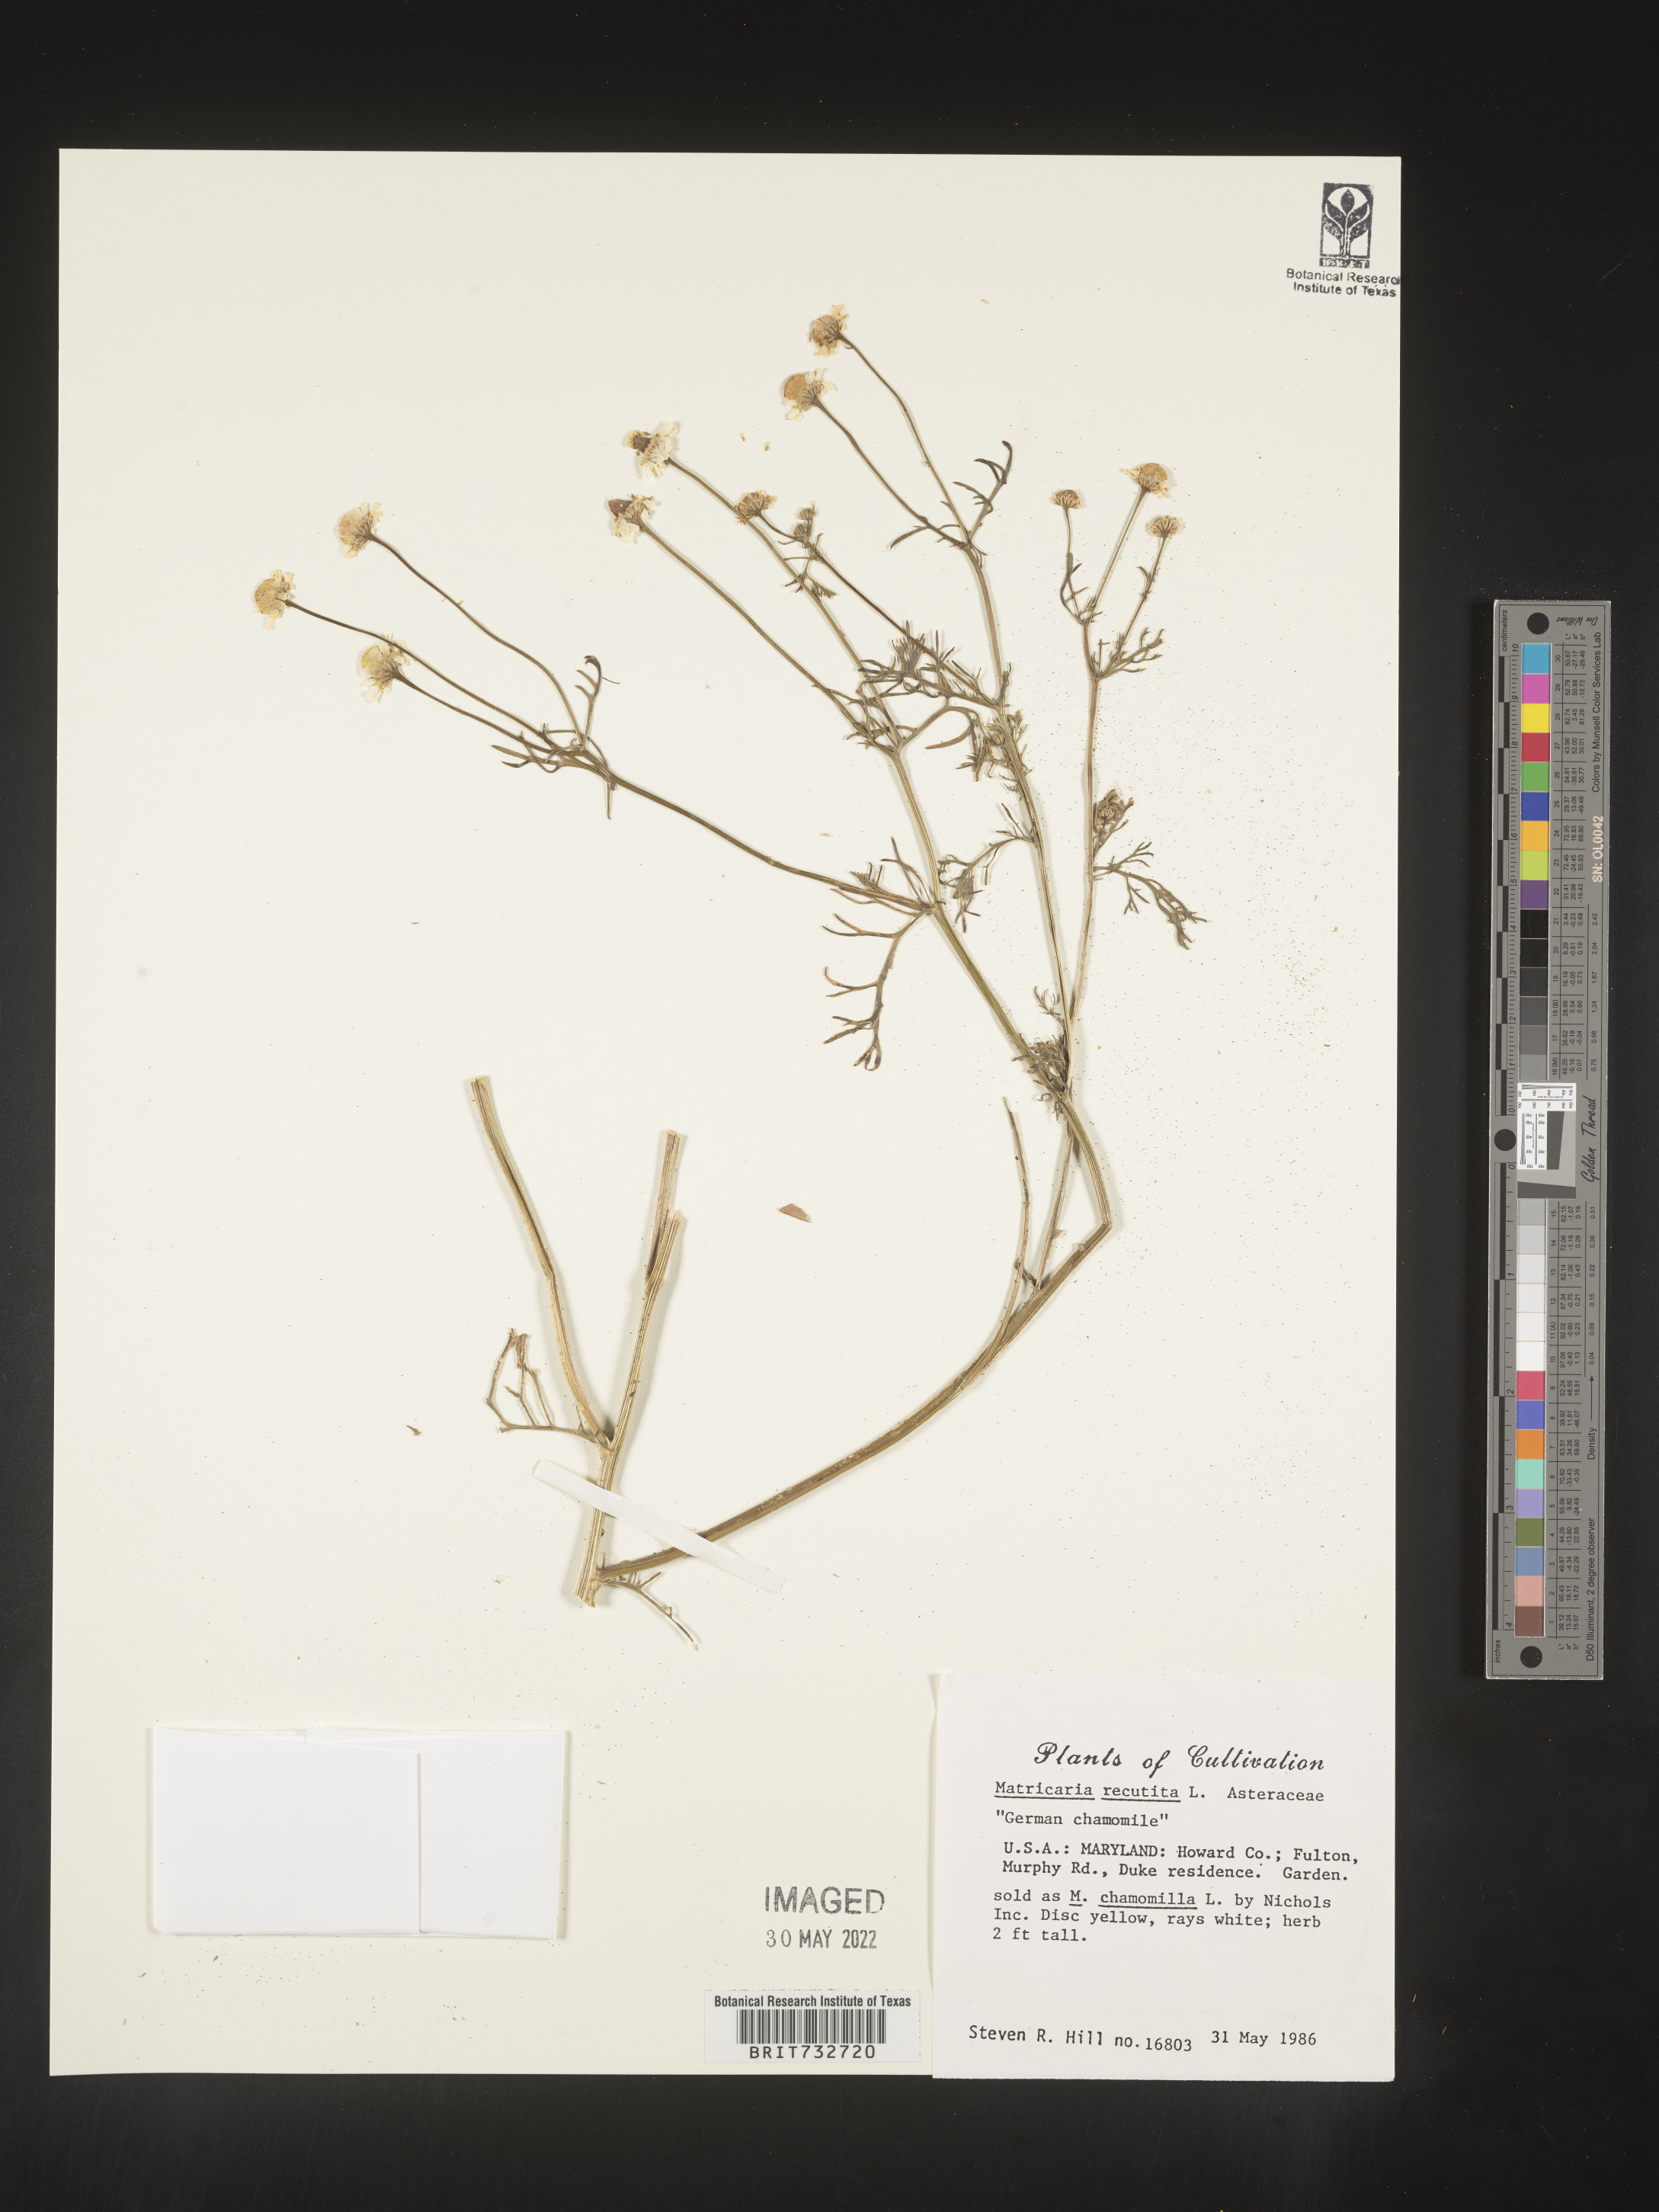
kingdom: Plantae
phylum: Tracheophyta
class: Magnoliopsida
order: Asterales
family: Asteraceae
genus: Matricaria
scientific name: Matricaria
